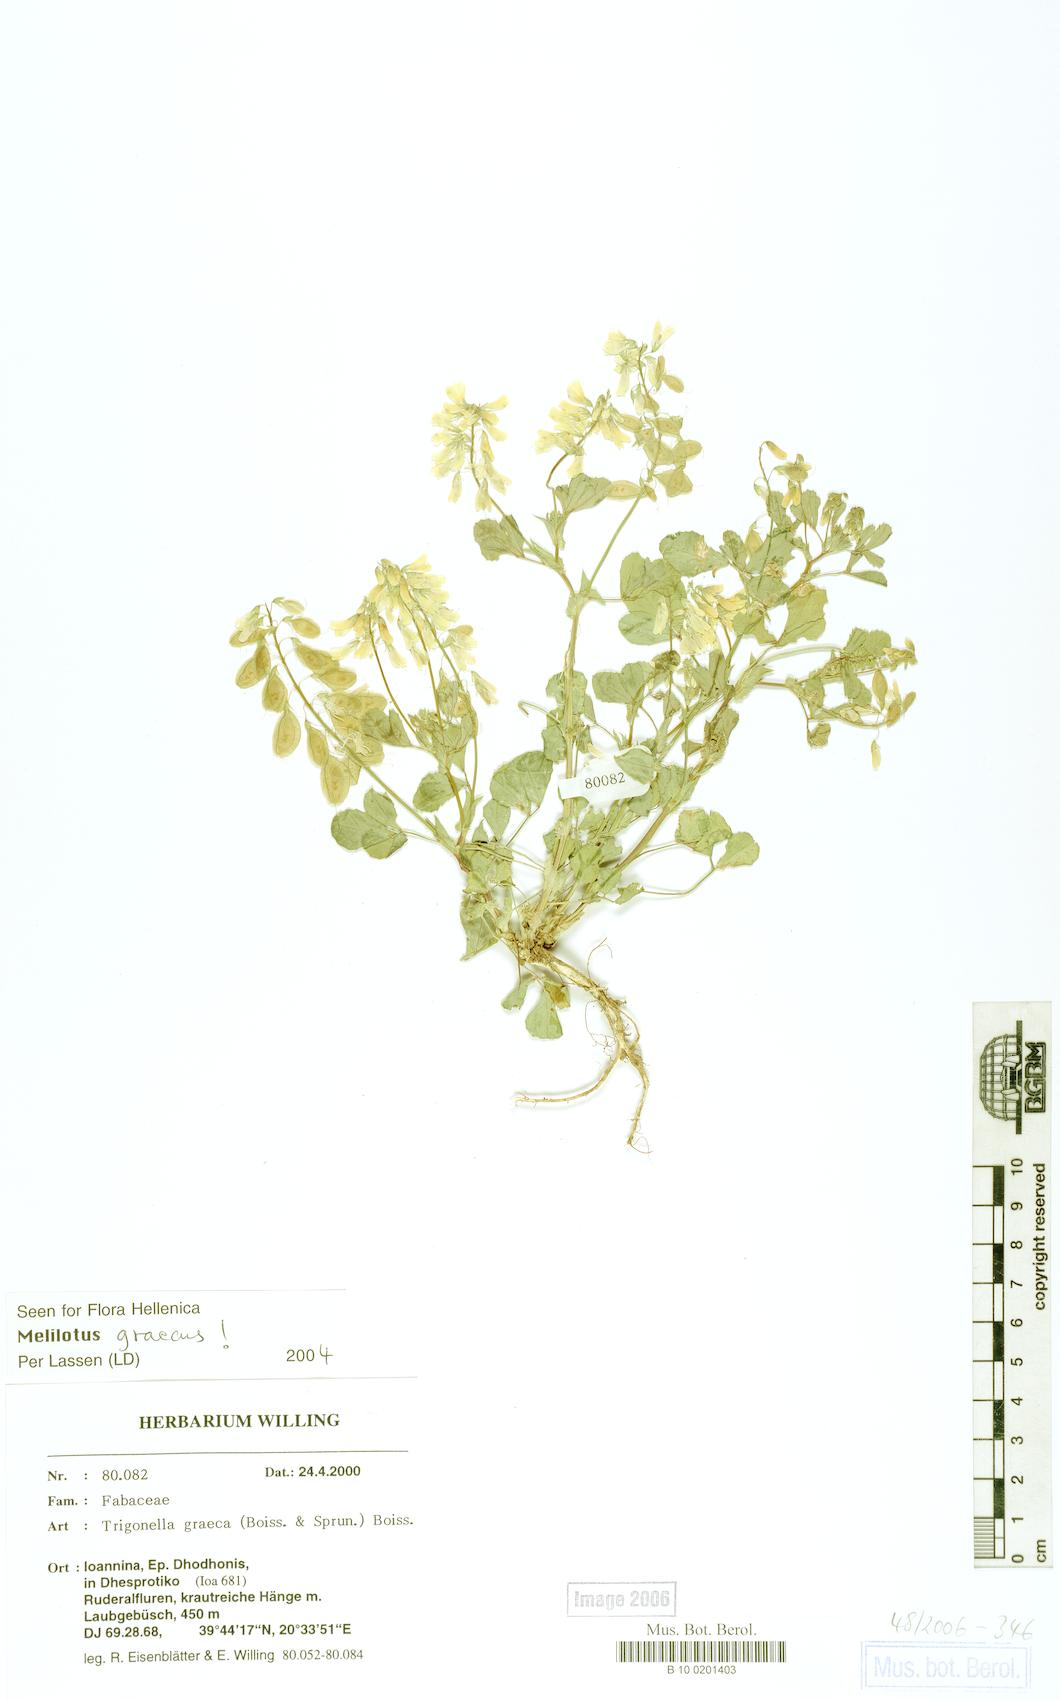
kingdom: Plantae
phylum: Tracheophyta
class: Magnoliopsida
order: Fabales
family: Fabaceae
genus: Trigonella
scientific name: Trigonella graeca
